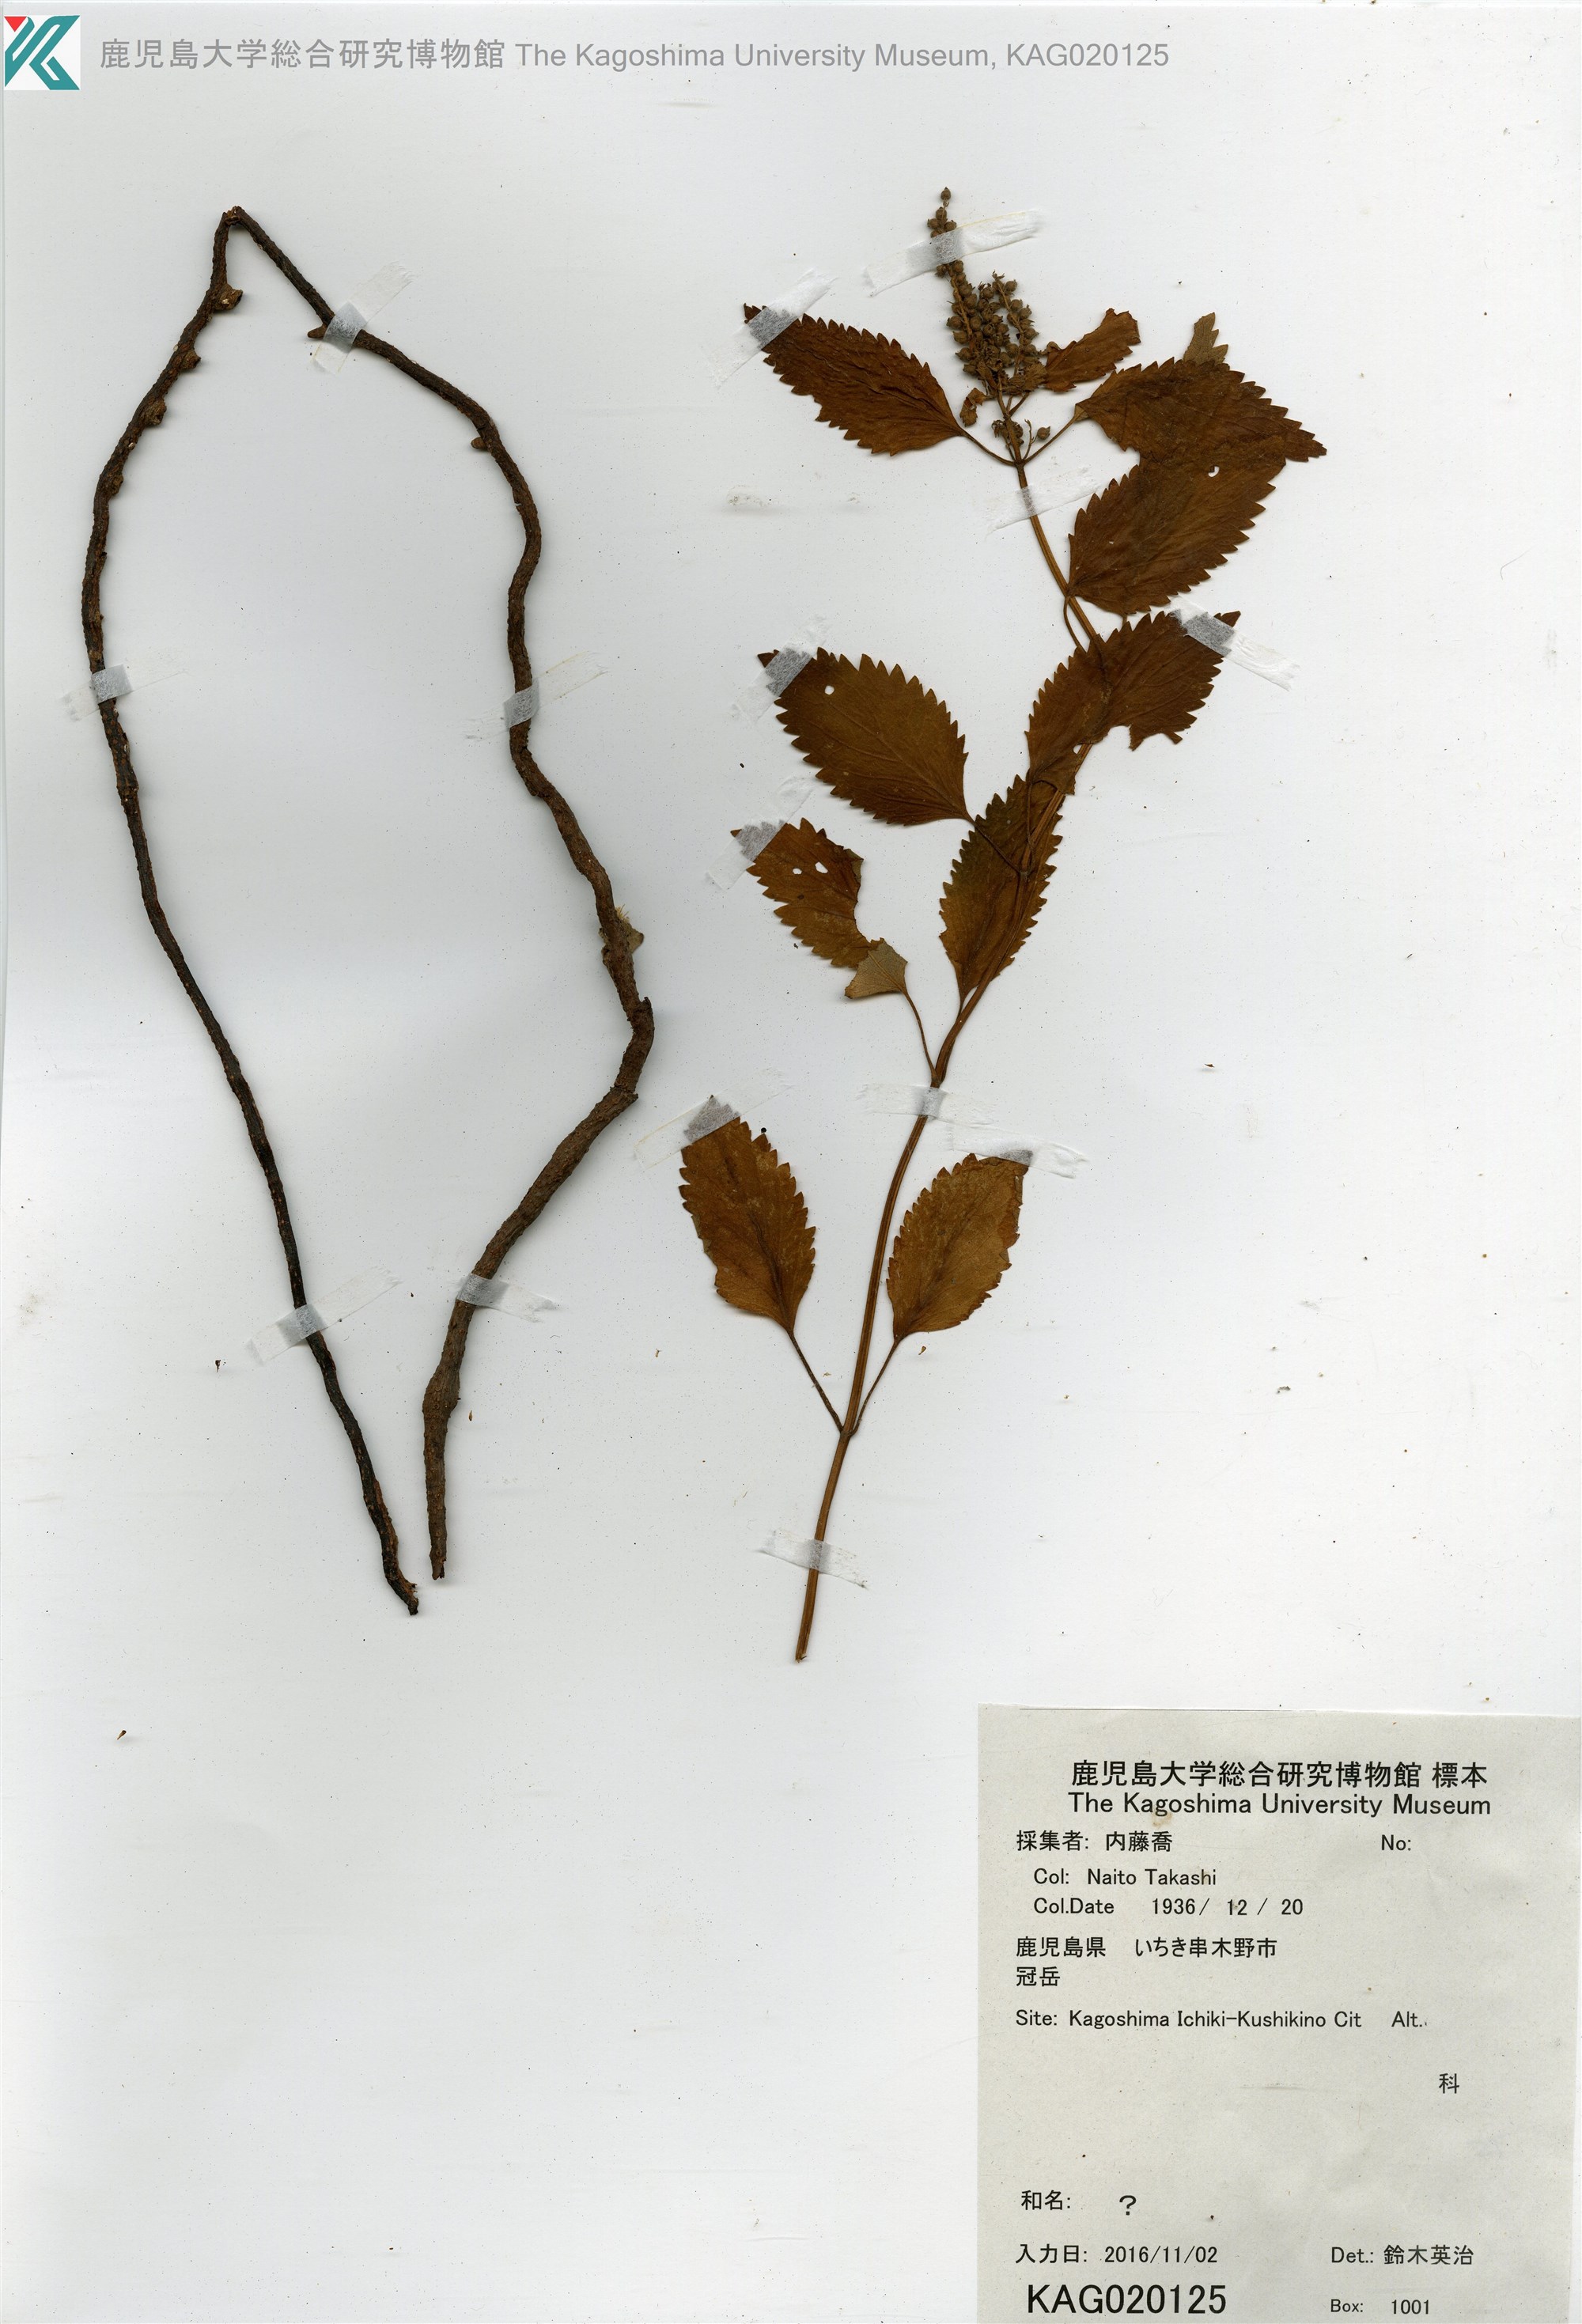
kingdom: Plantae
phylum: Tracheophyta
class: Magnoliopsida
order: Lamiales
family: Lamiaceae
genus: Teucrium
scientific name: Teucrium viscidum
